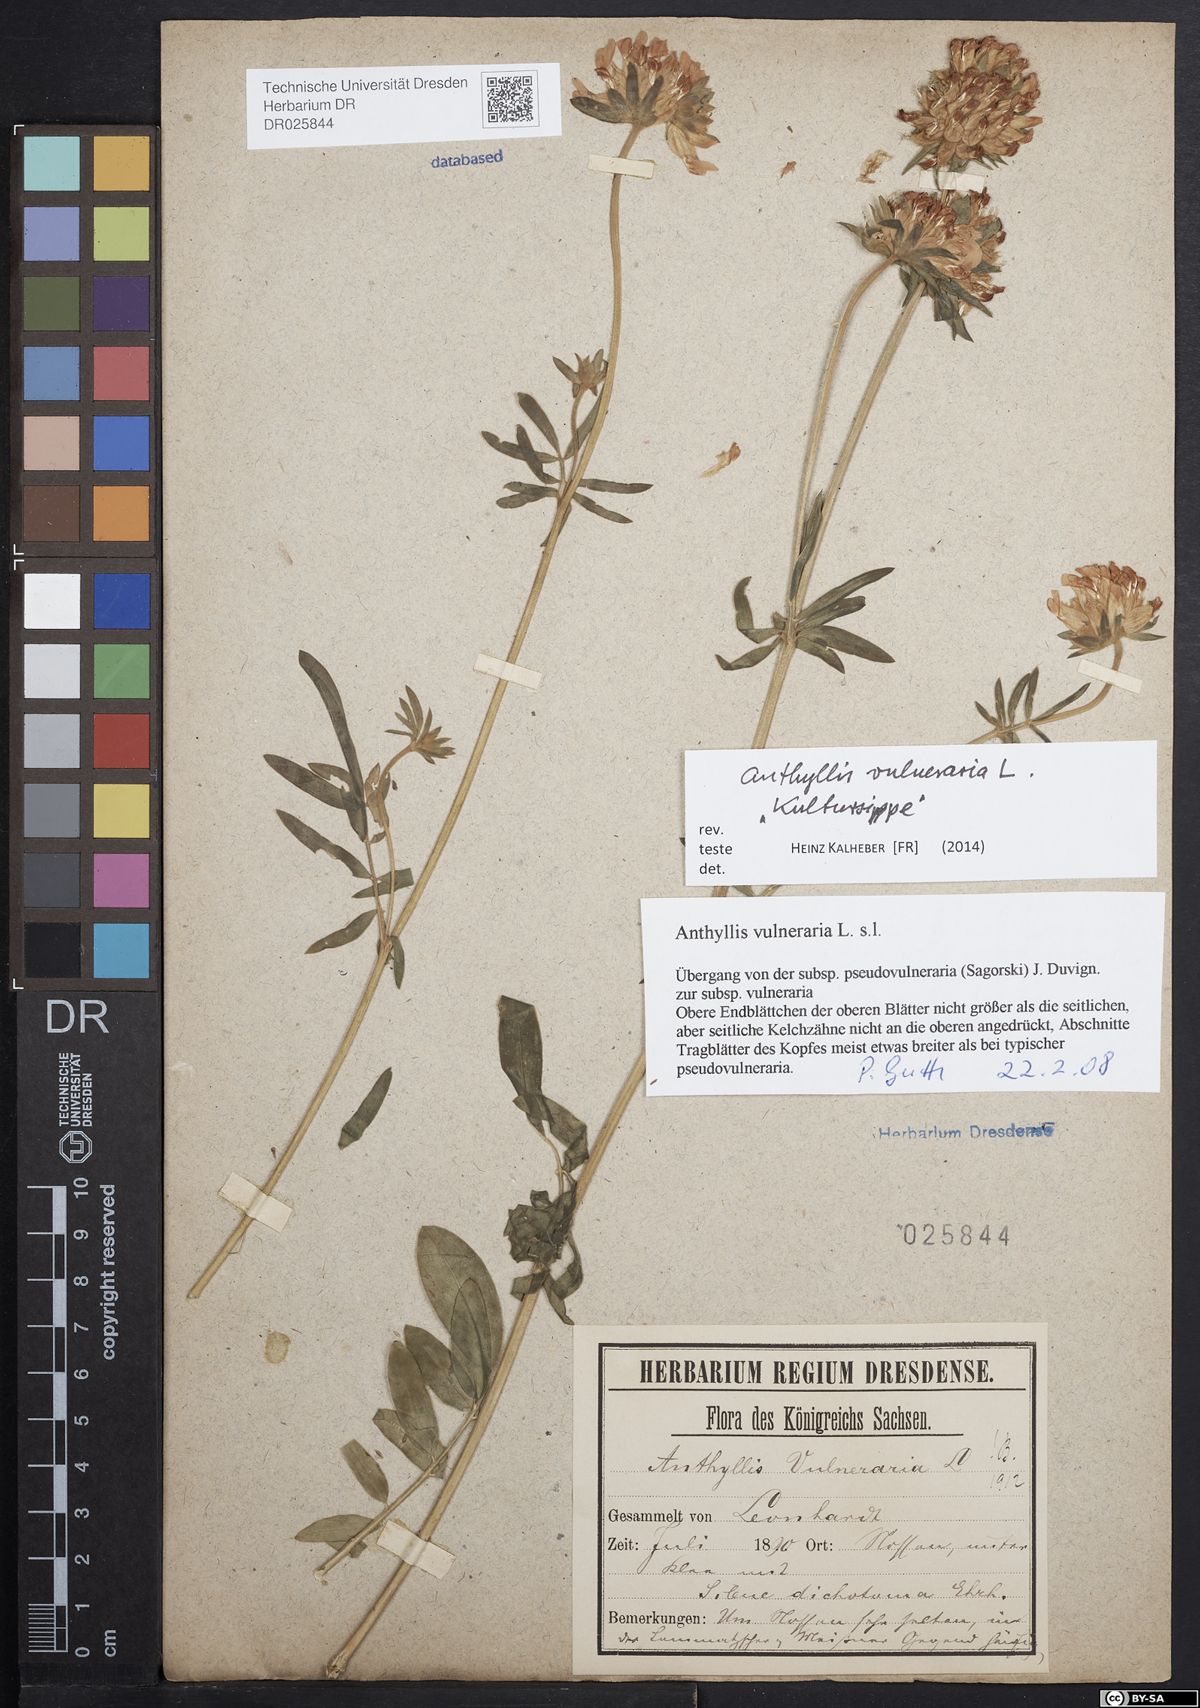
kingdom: Plantae
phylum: Tracheophyta
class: Magnoliopsida
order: Fabales
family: Fabaceae
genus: Anthyllis
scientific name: Anthyllis vulneraria
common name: Kidney vetch
